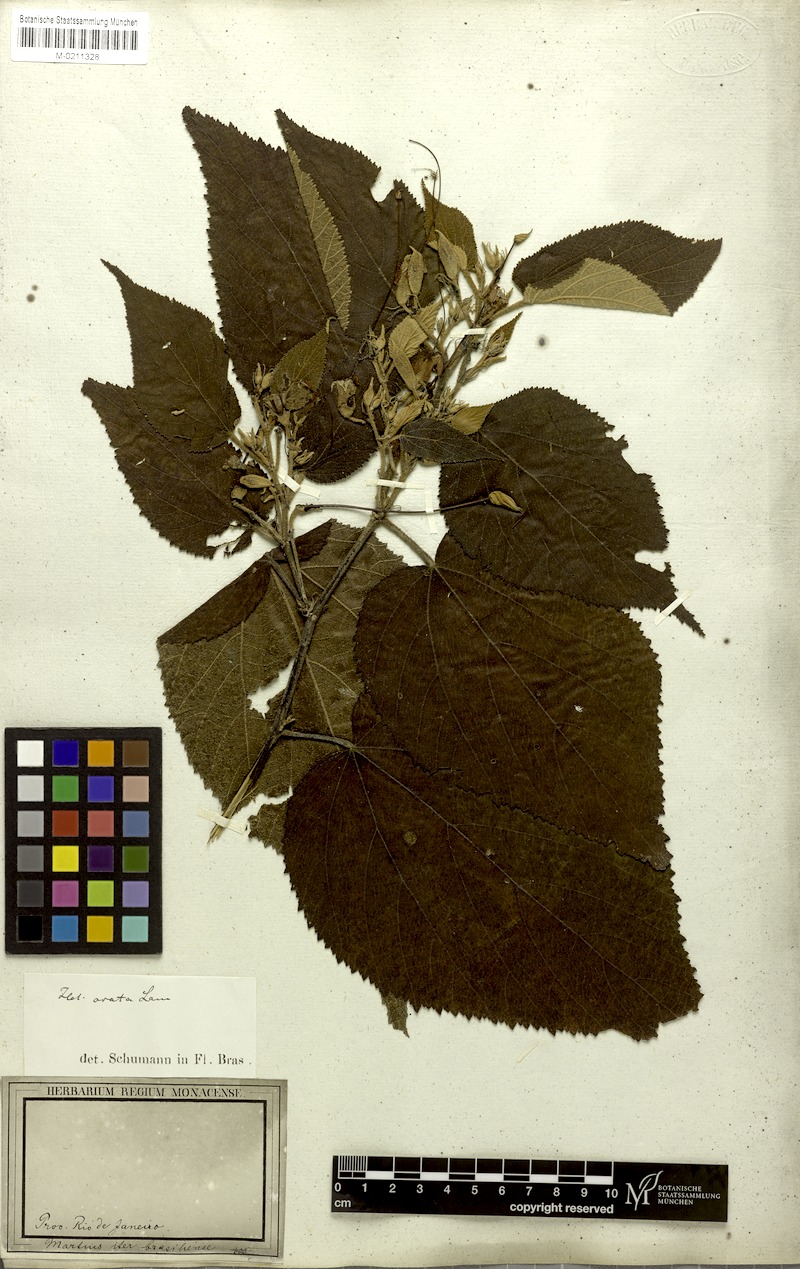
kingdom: Plantae
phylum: Tracheophyta
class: Magnoliopsida
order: Malvales
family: Malvaceae
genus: Helicteres
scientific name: Helicteres ovata
